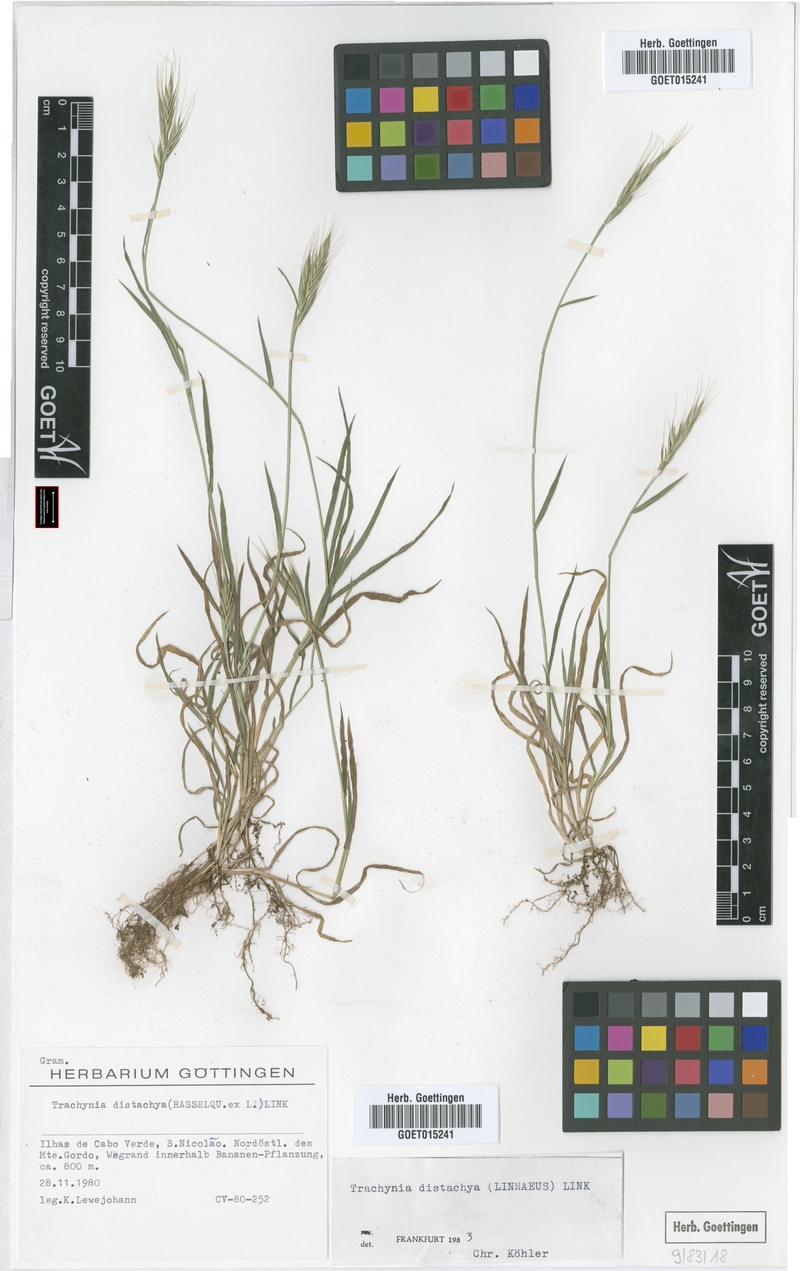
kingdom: Plantae
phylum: Tracheophyta
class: Liliopsida
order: Poales
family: Poaceae
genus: Brachypodium
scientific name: Brachypodium distachyon
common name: Stiff brome
